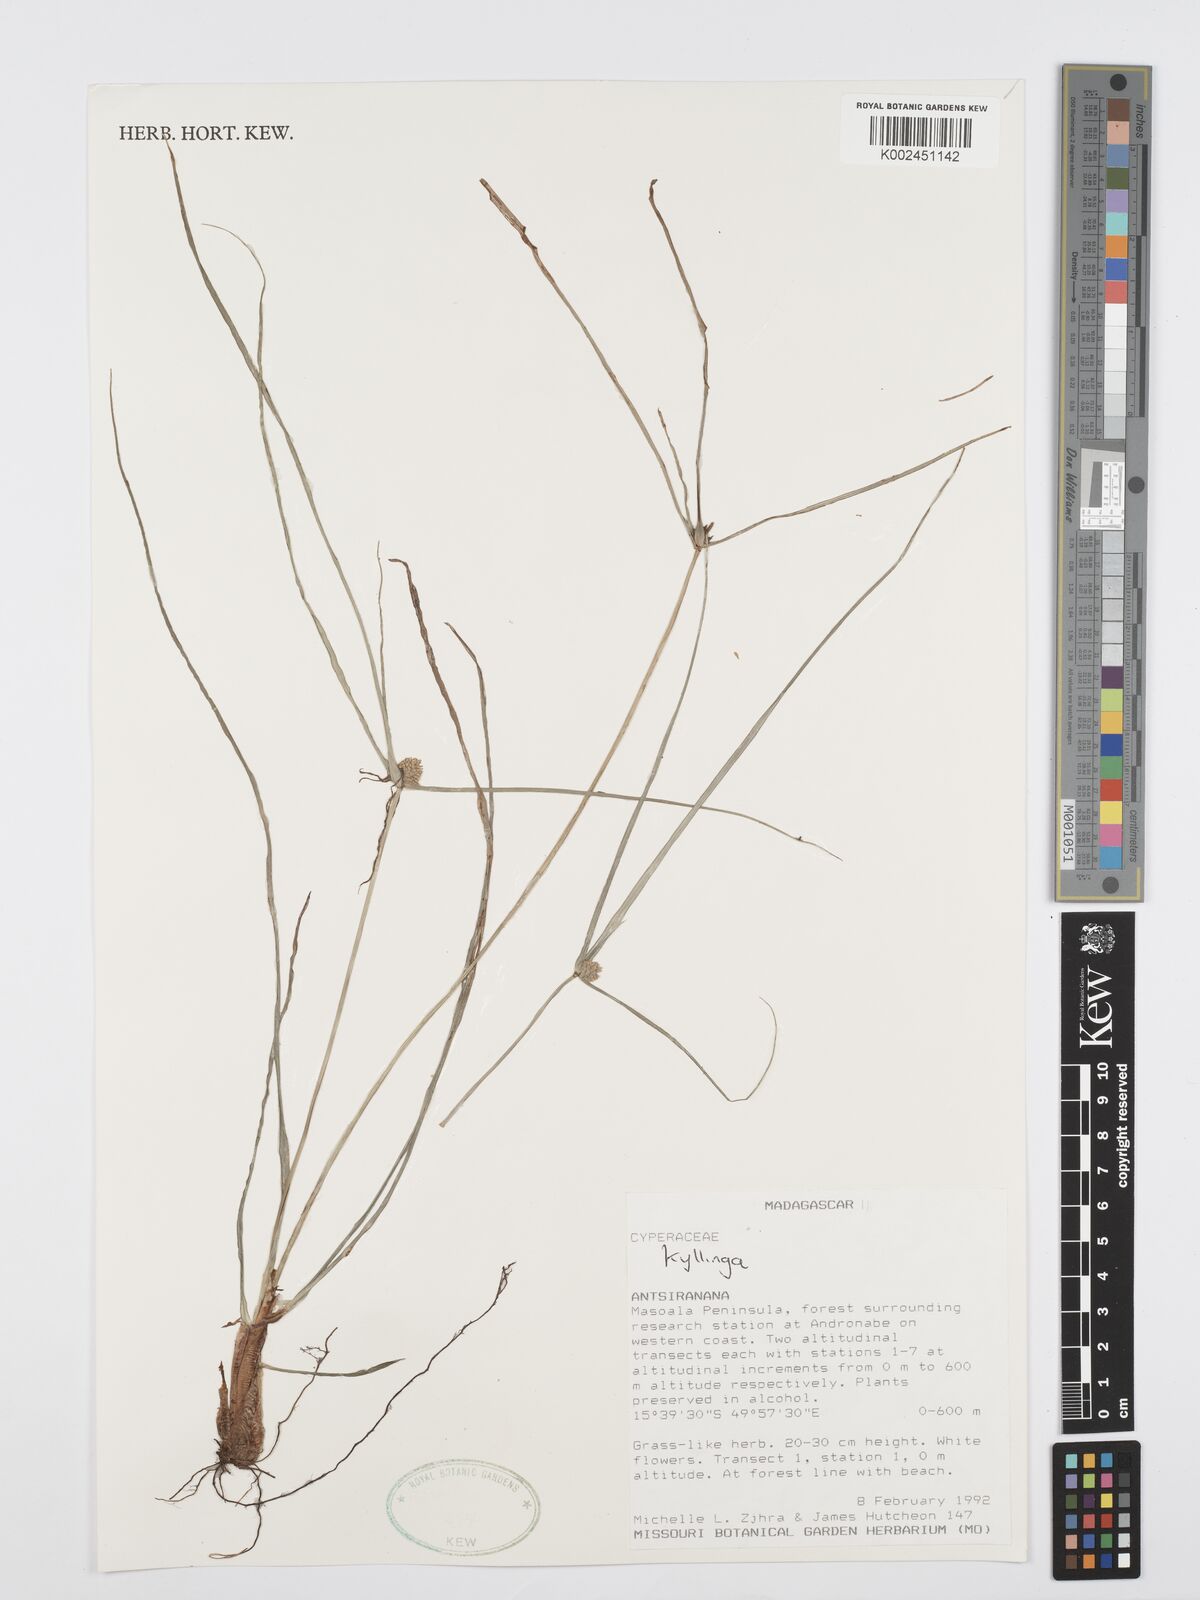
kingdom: Plantae
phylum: Tracheophyta
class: Liliopsida
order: Poales
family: Cyperaceae
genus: Cyperus
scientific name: Cyperus
